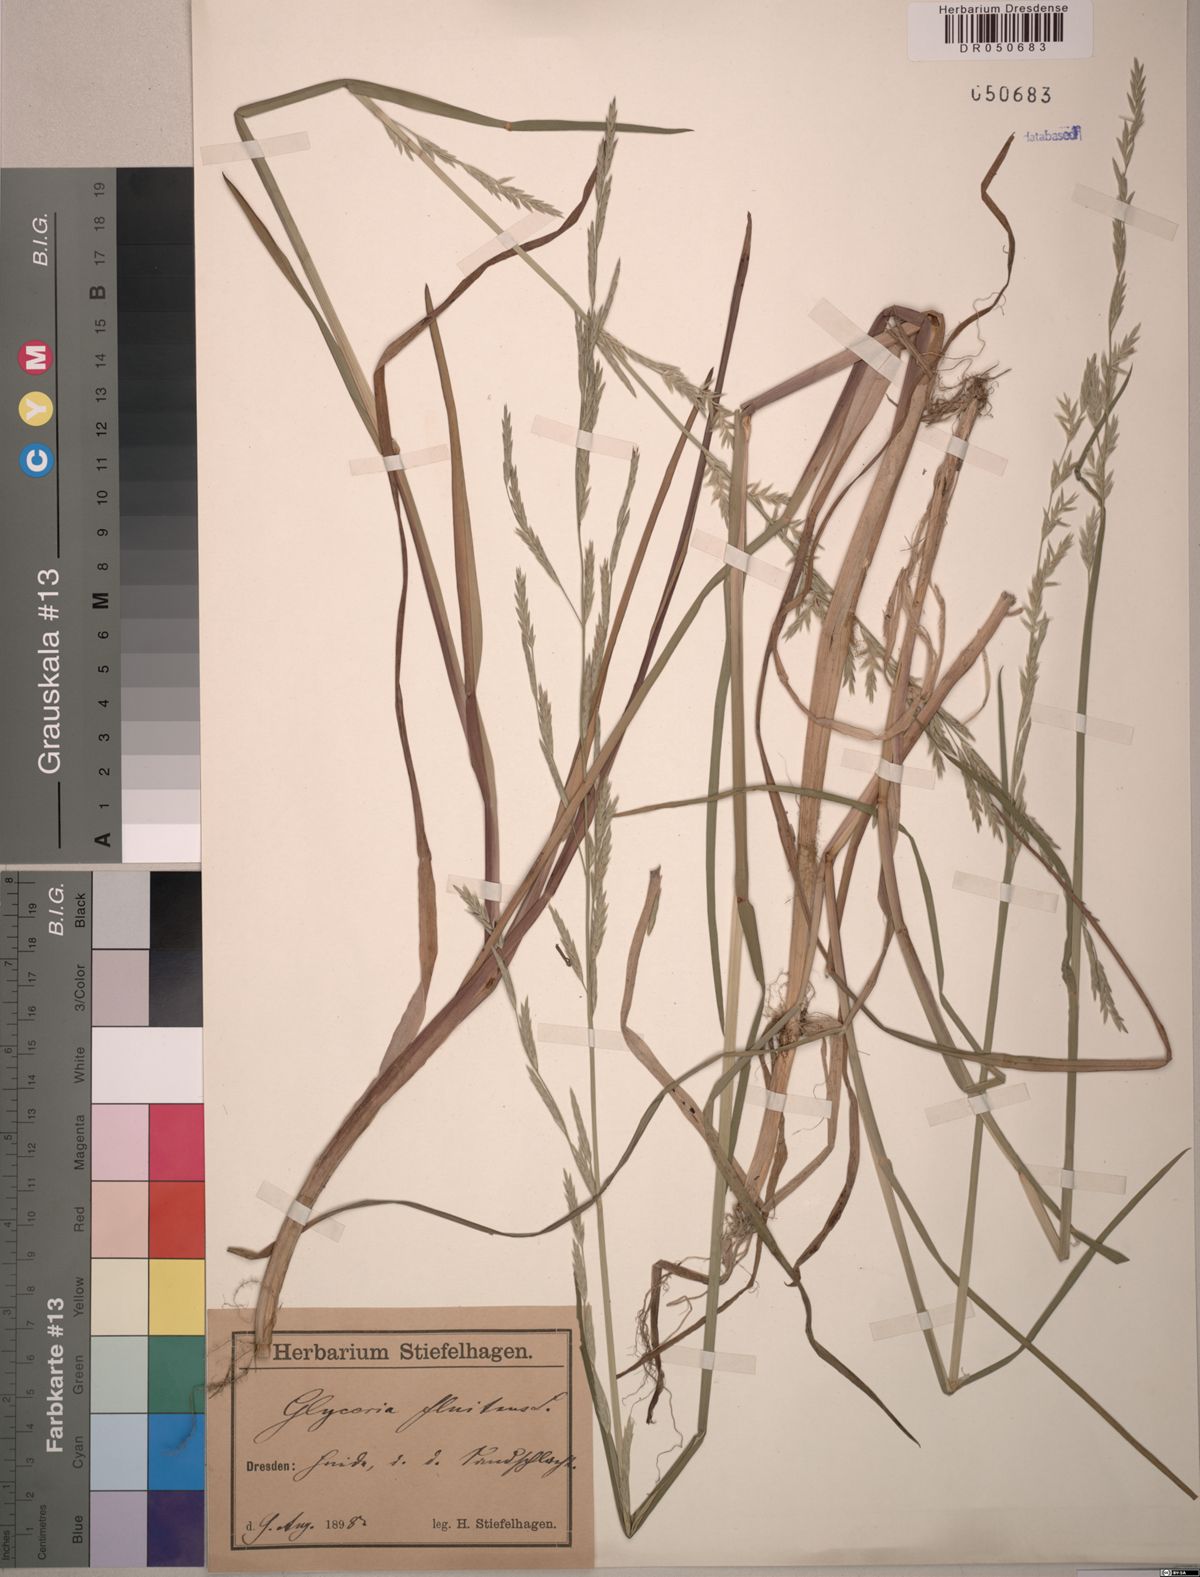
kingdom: Plantae
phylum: Tracheophyta
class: Liliopsida
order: Poales
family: Poaceae
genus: Glyceria
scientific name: Glyceria fluitans
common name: Floating sweet-grass
